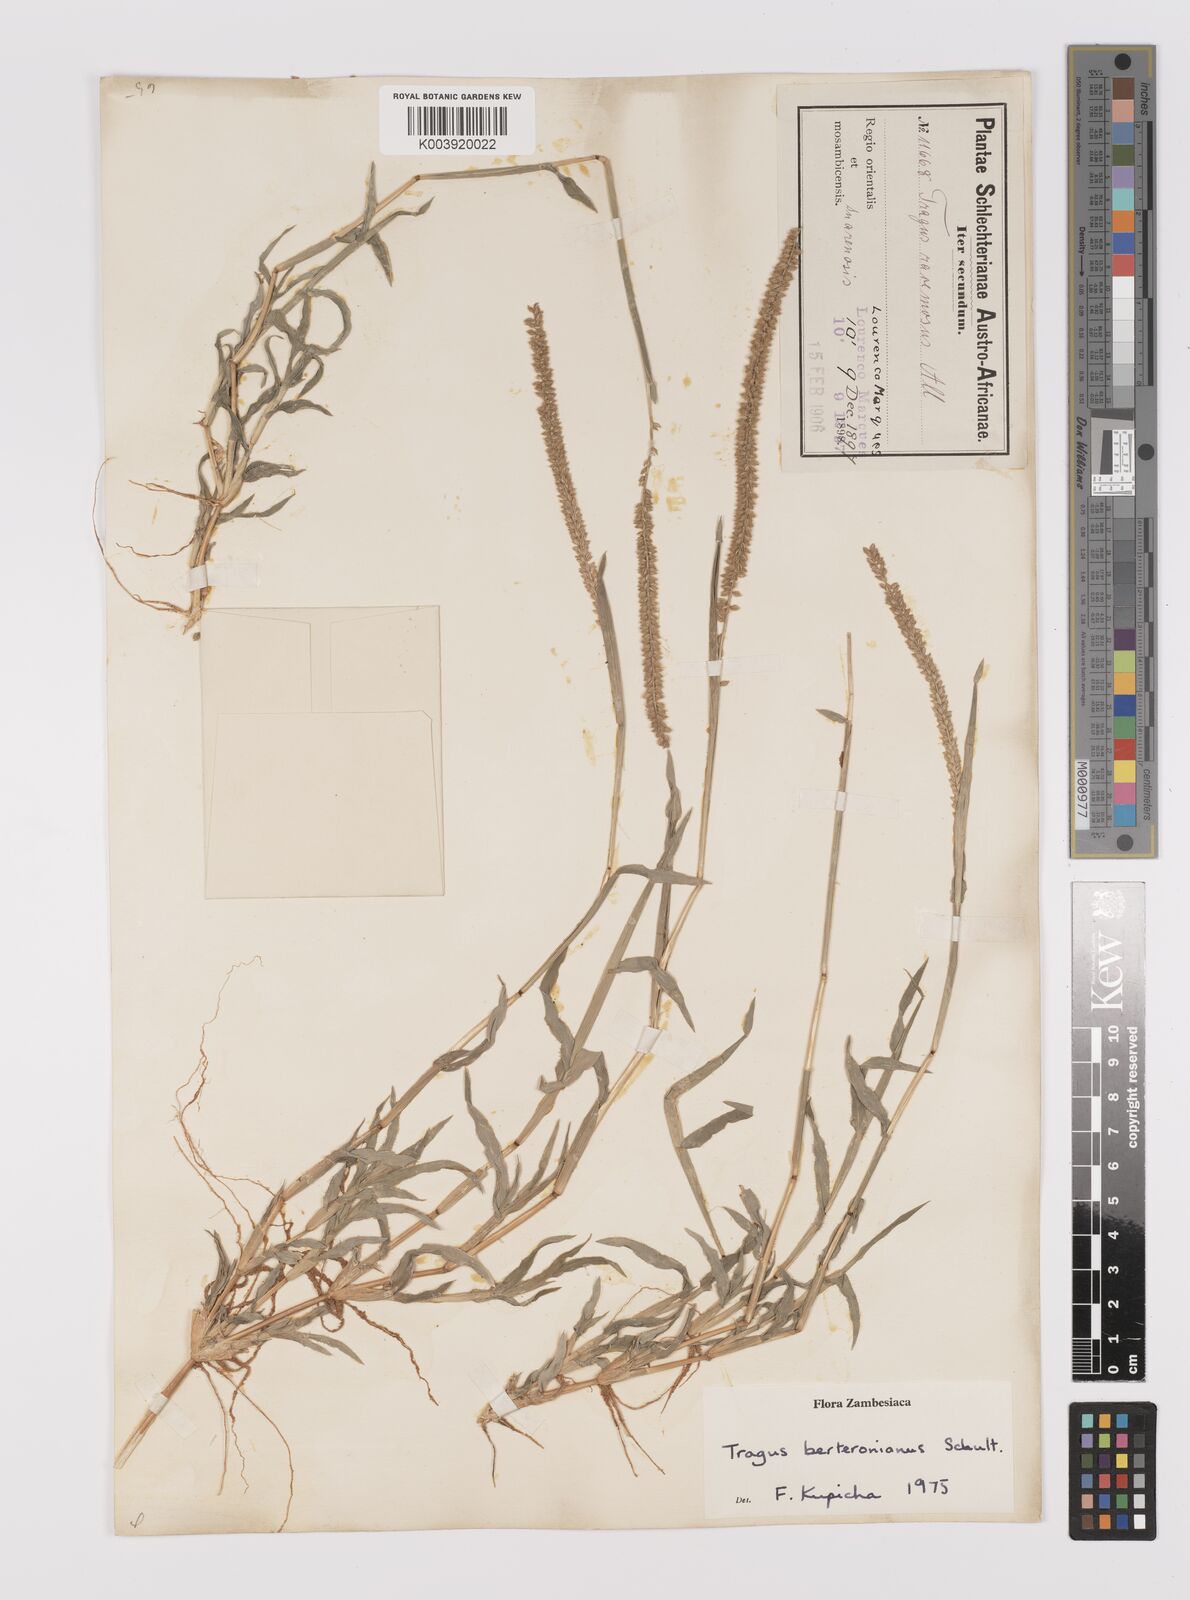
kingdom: Plantae
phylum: Tracheophyta
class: Liliopsida
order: Poales
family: Poaceae
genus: Tragus
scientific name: Tragus berteronianus
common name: African bur-grass
